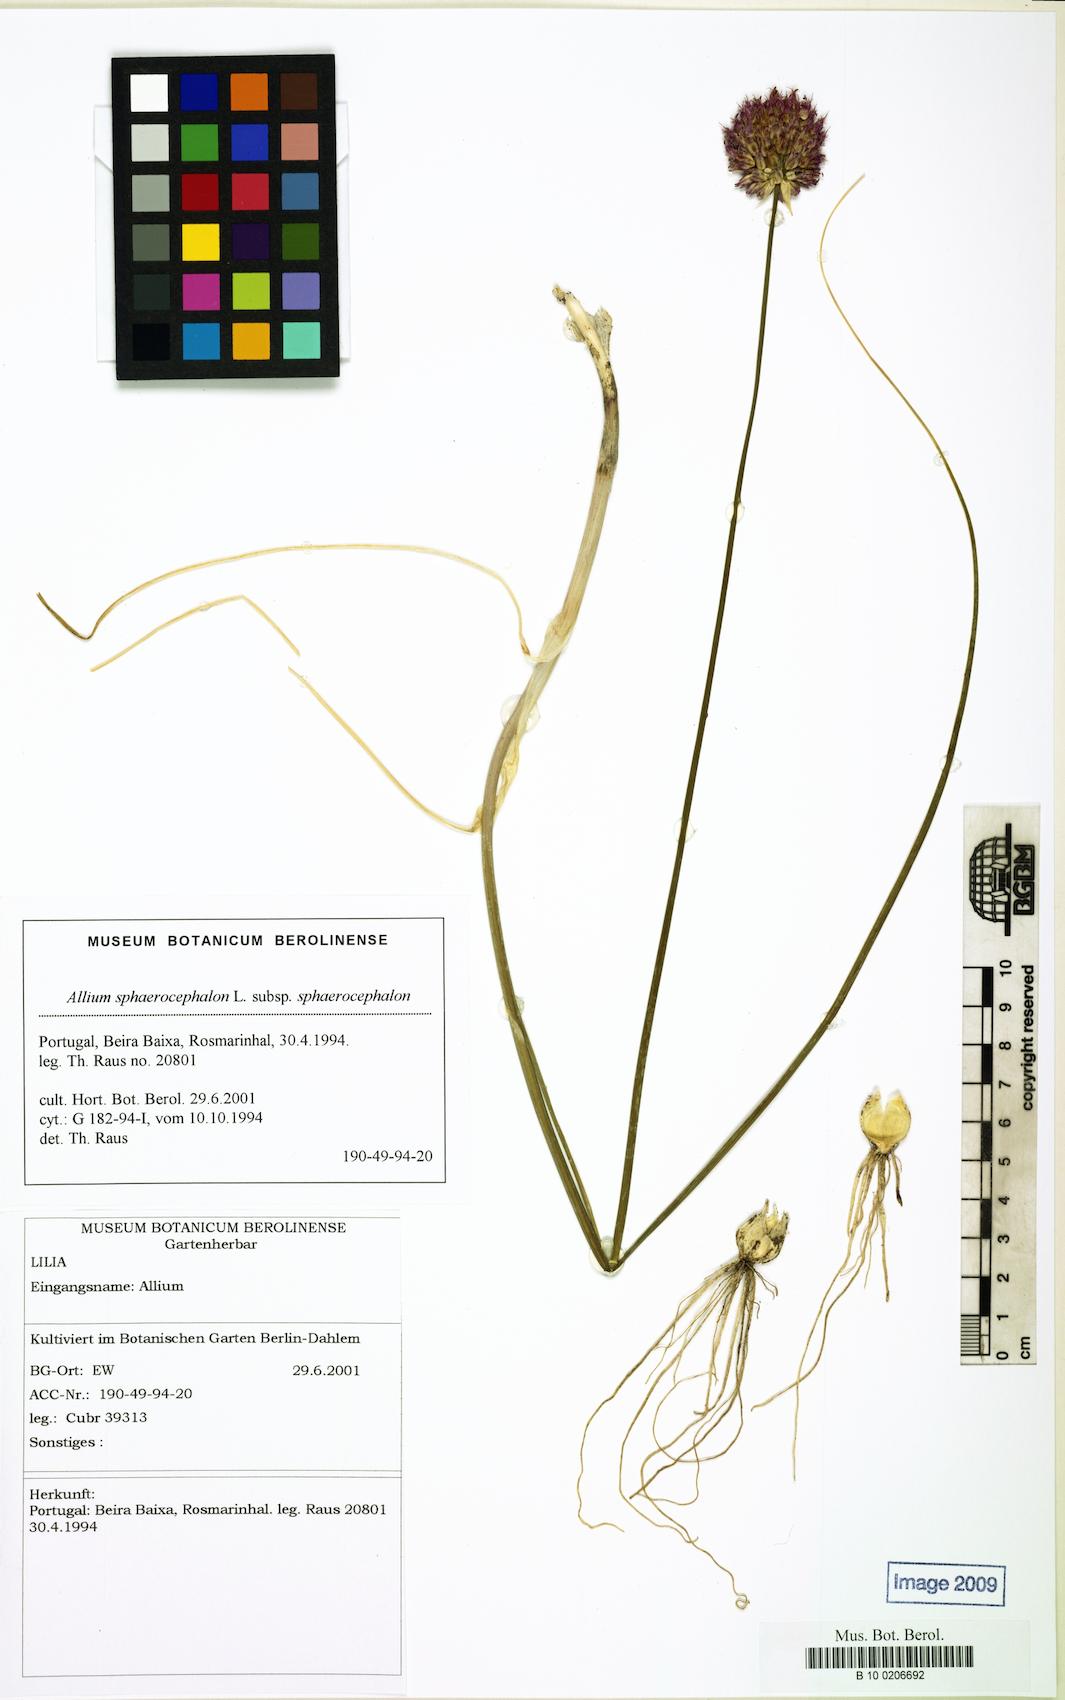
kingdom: Plantae
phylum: Tracheophyta
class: Liliopsida
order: Asparagales
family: Amaryllidaceae
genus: Allium
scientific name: Allium sphaerocephalon
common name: Round-headed leek
